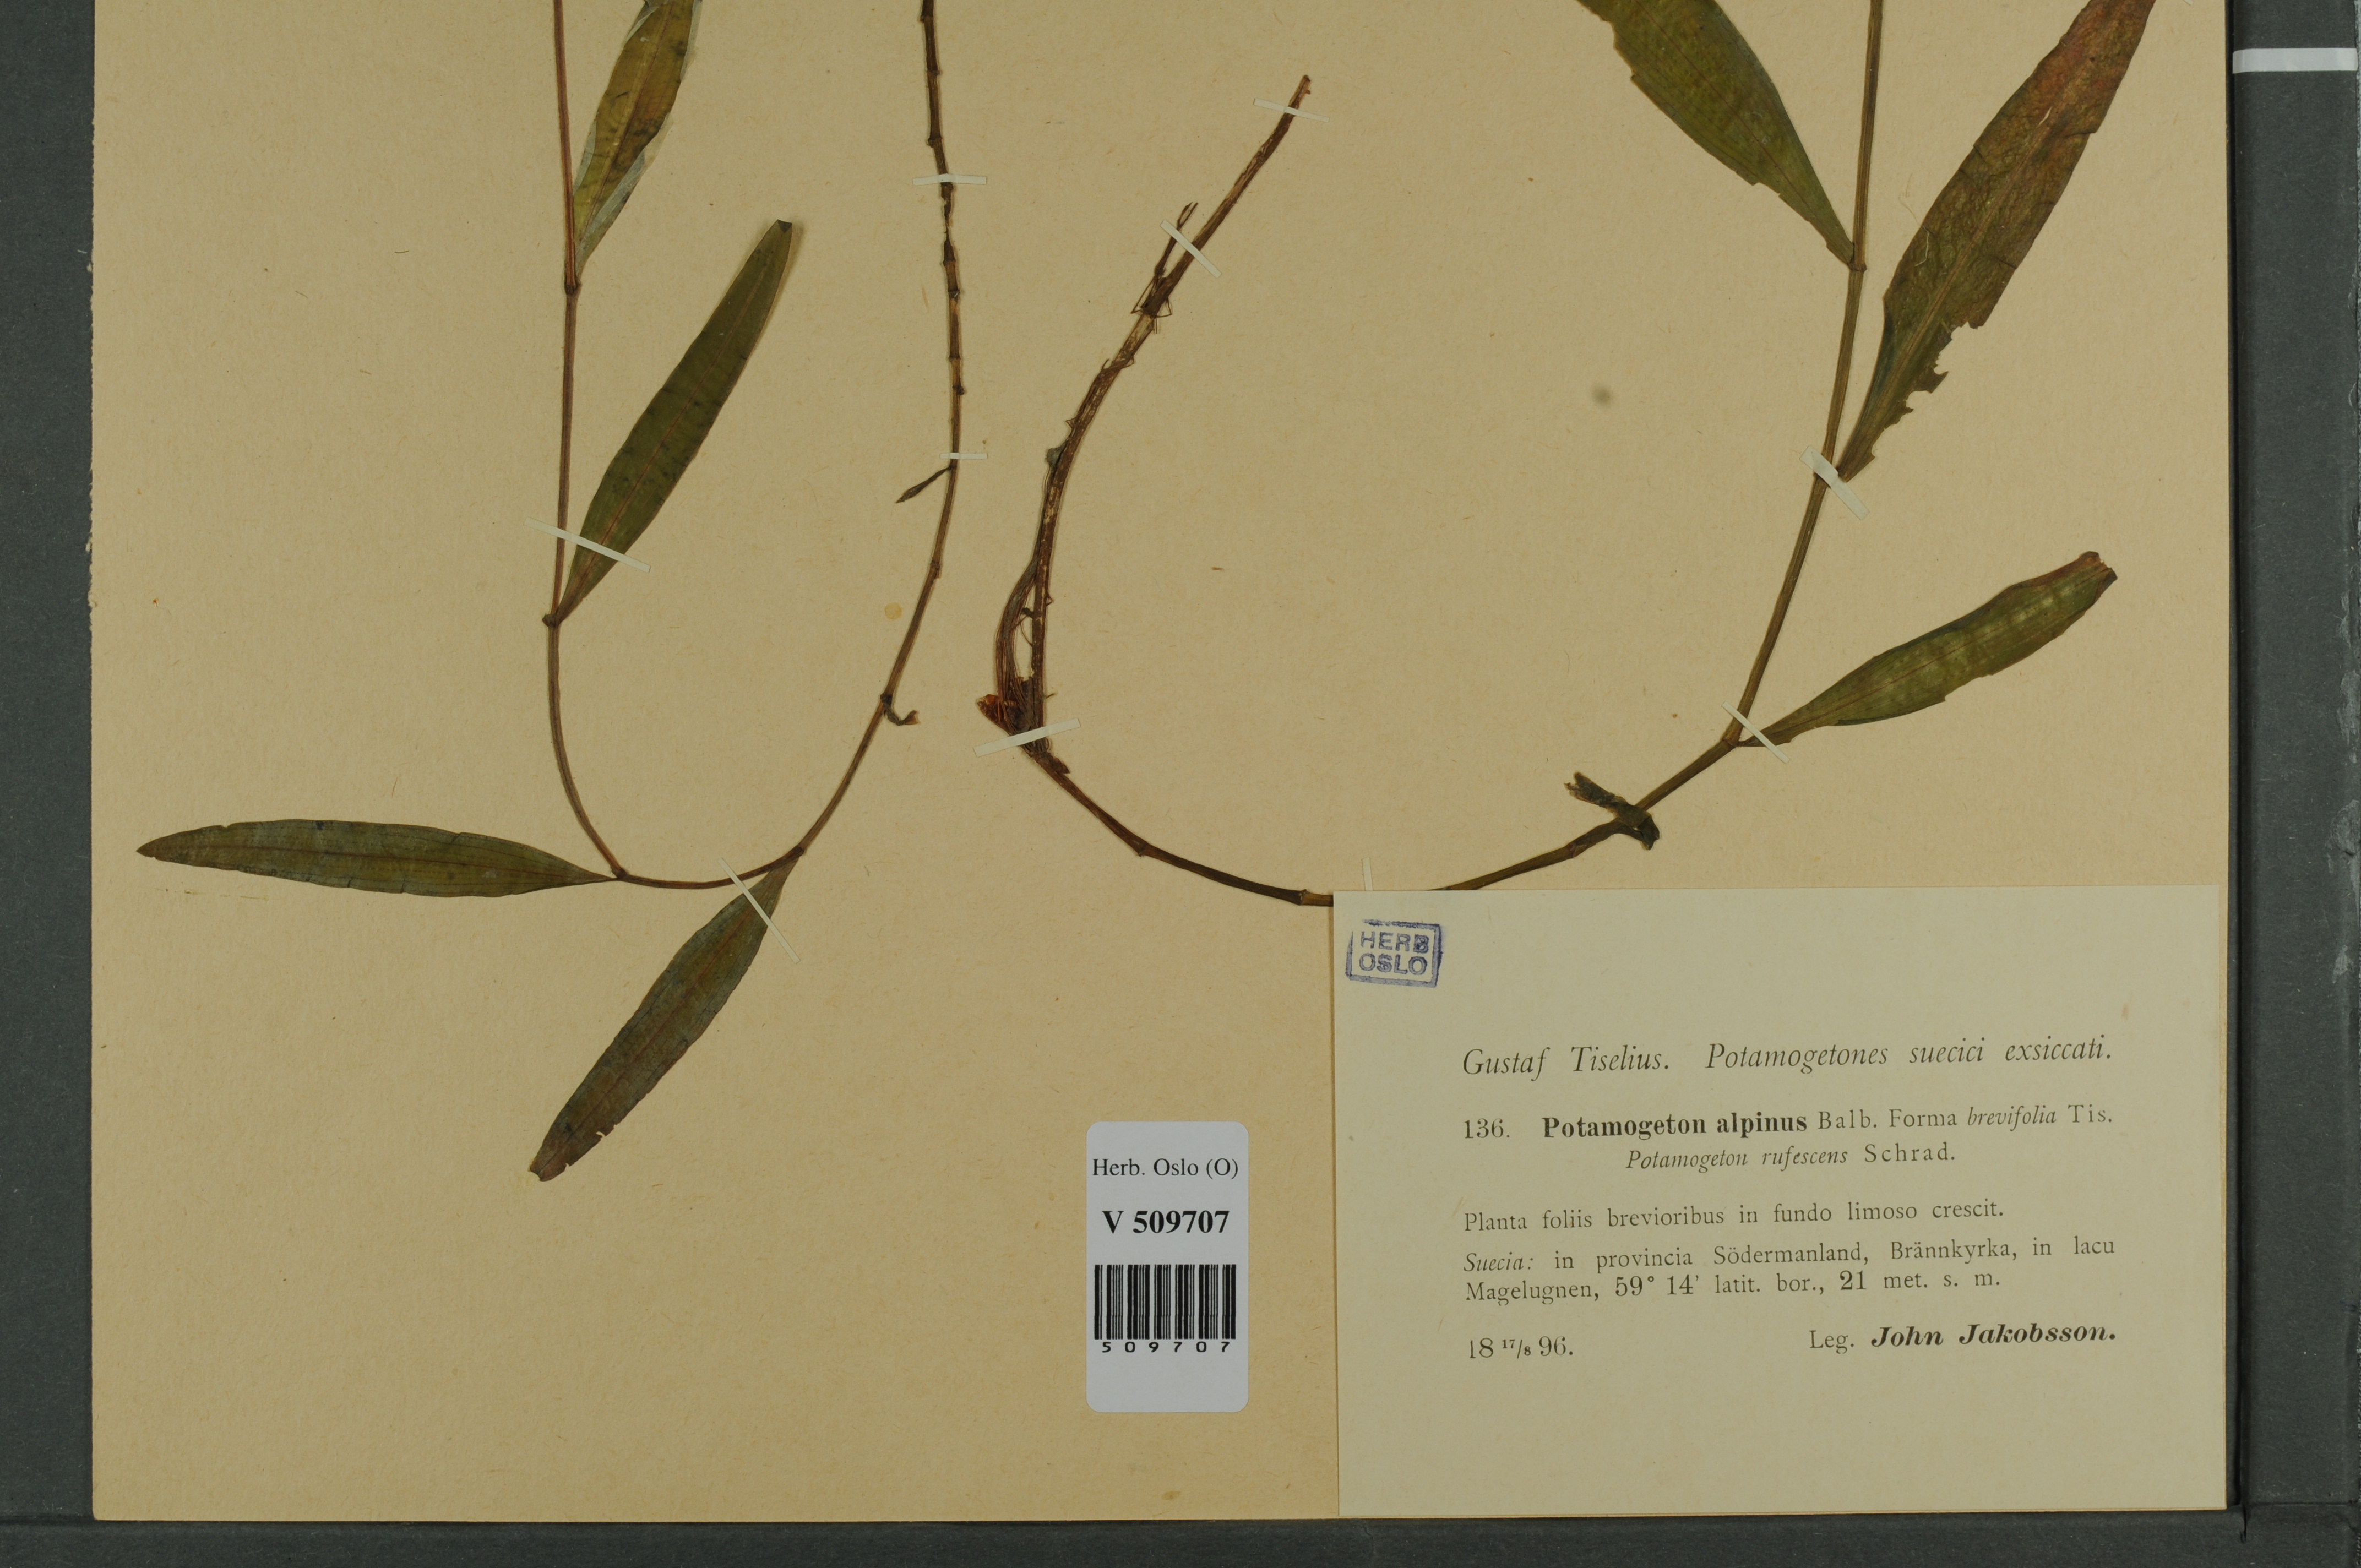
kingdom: Plantae
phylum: Tracheophyta
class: Liliopsida
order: Alismatales
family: Potamogetonaceae
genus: Potamogeton
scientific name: Potamogeton alpinus
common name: Red pondweed
